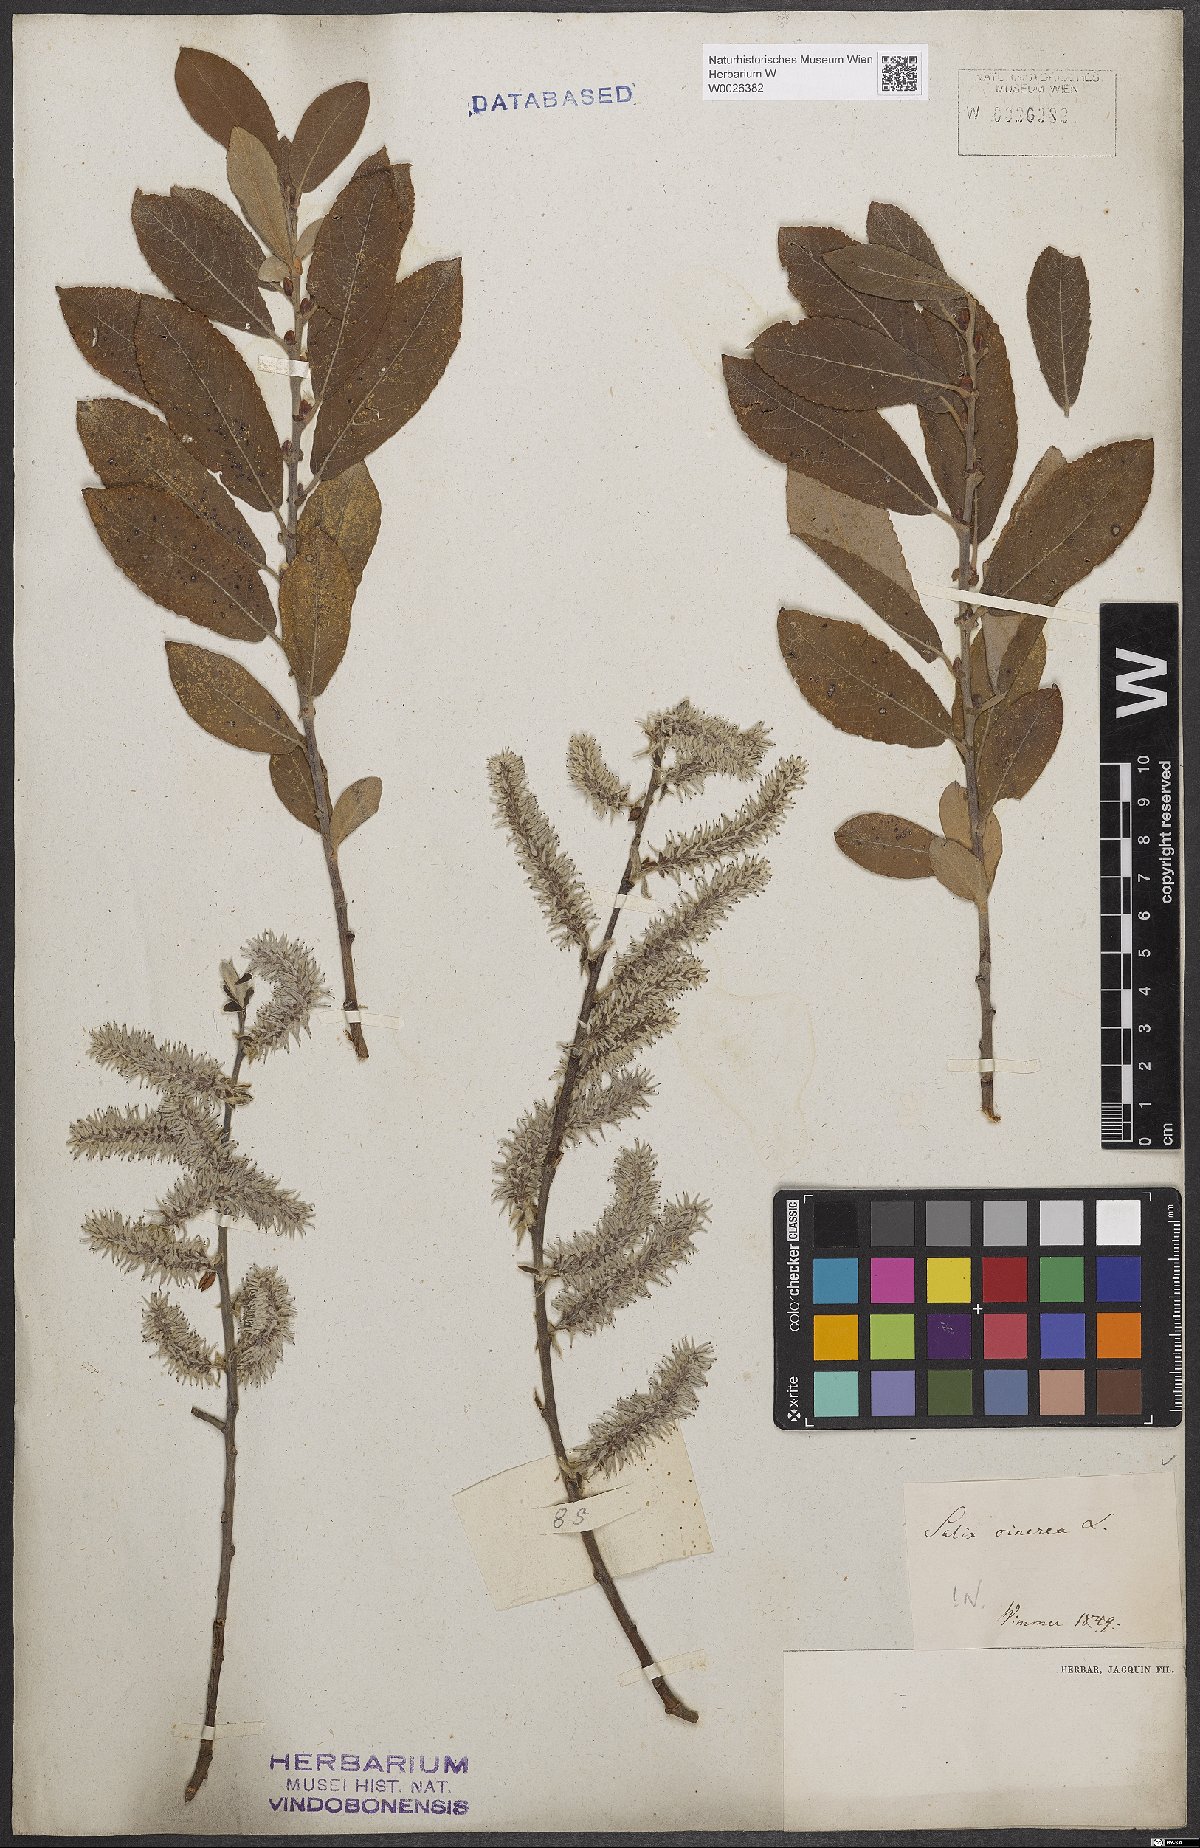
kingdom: Plantae
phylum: Tracheophyta
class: Magnoliopsida
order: Malpighiales
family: Salicaceae
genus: Salix
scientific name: Salix cinerea
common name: Common sallow
